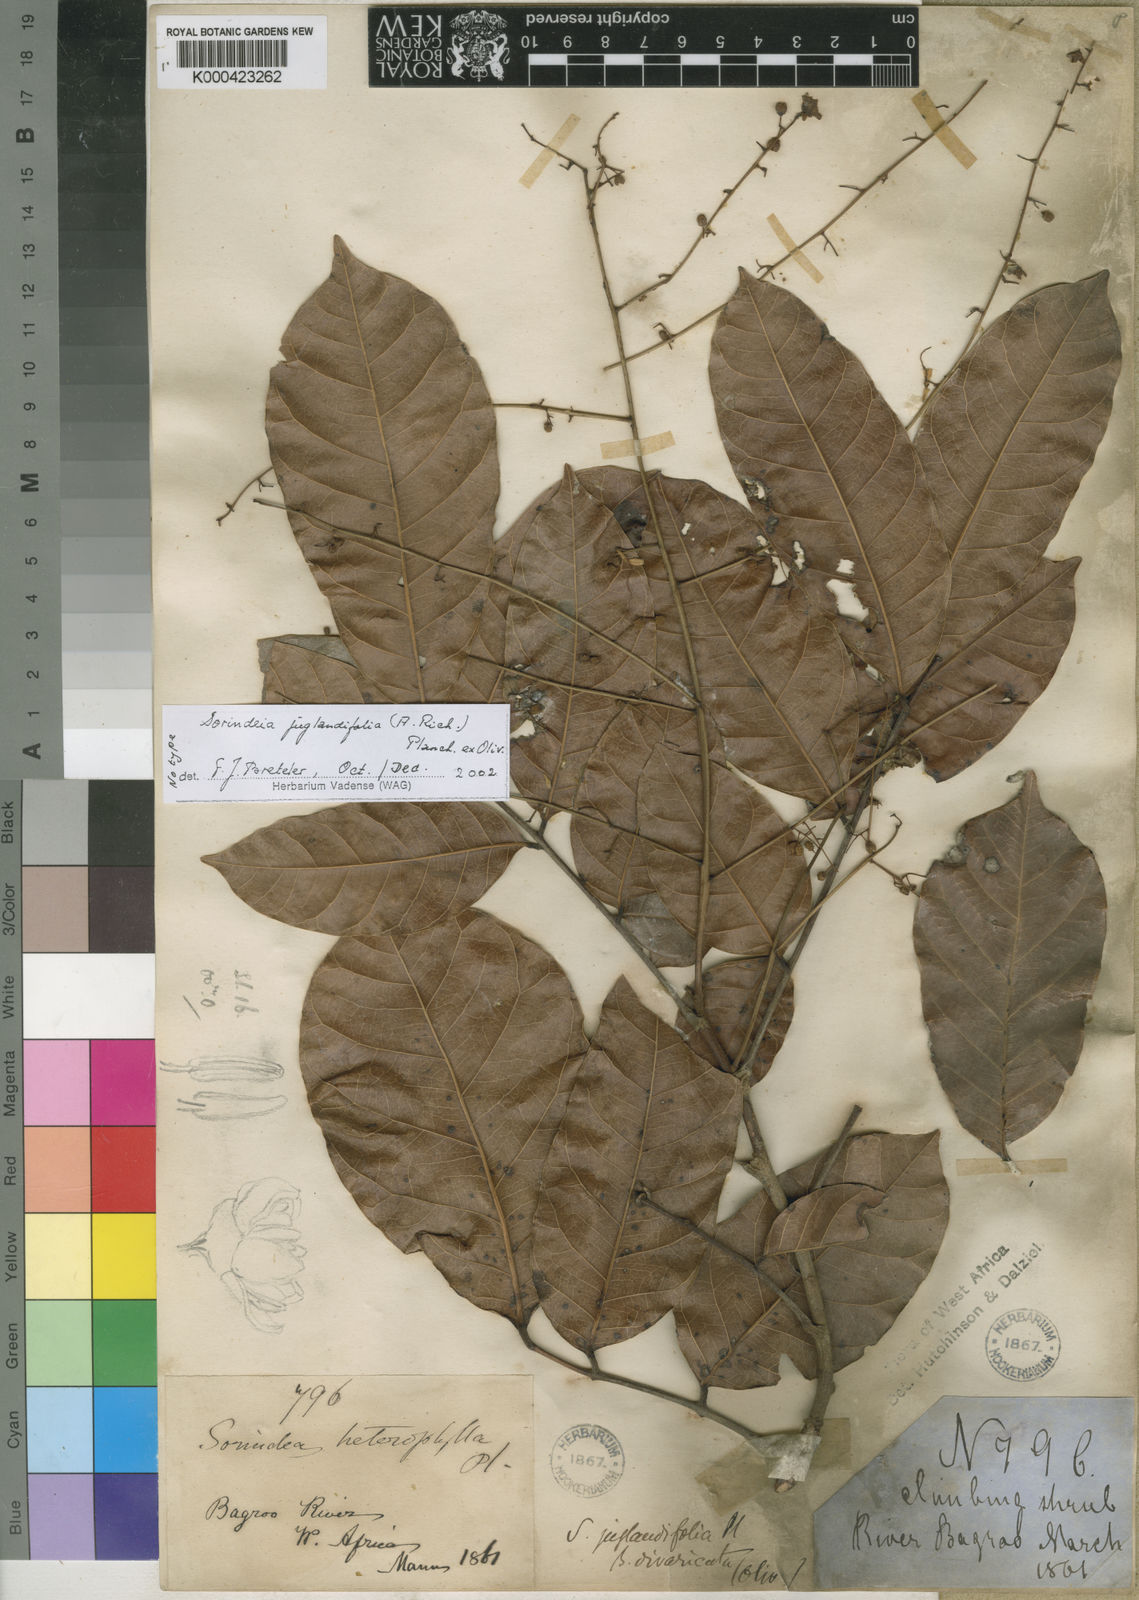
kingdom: Plantae
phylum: Tracheophyta
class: Magnoliopsida
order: Sapindales
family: Anacardiaceae
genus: Sorindeia
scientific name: Sorindeia juglandifolia
